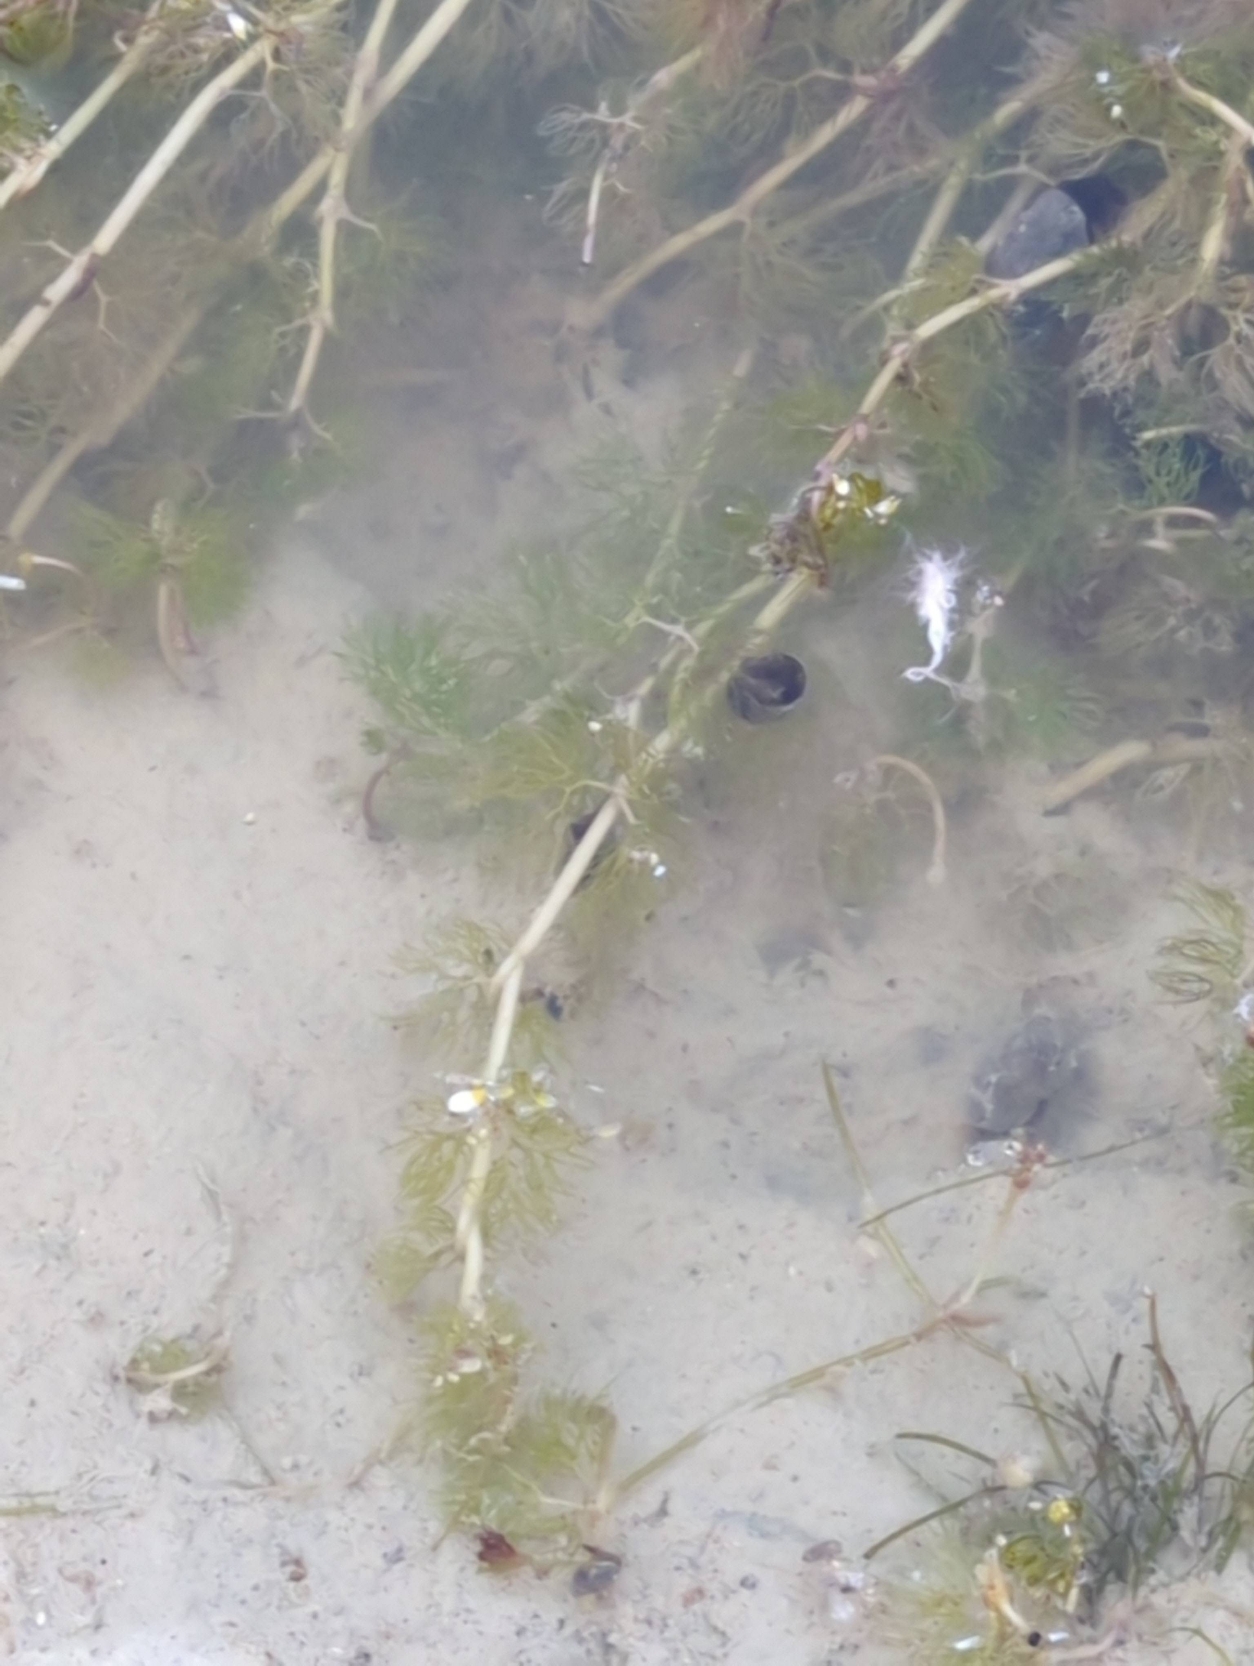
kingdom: Plantae
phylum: Tracheophyta
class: Magnoliopsida
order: Ranunculales
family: Ranunculaceae
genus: Ranunculus
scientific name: Ranunculus trichophyllus
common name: Hårfliget vandranunkel
